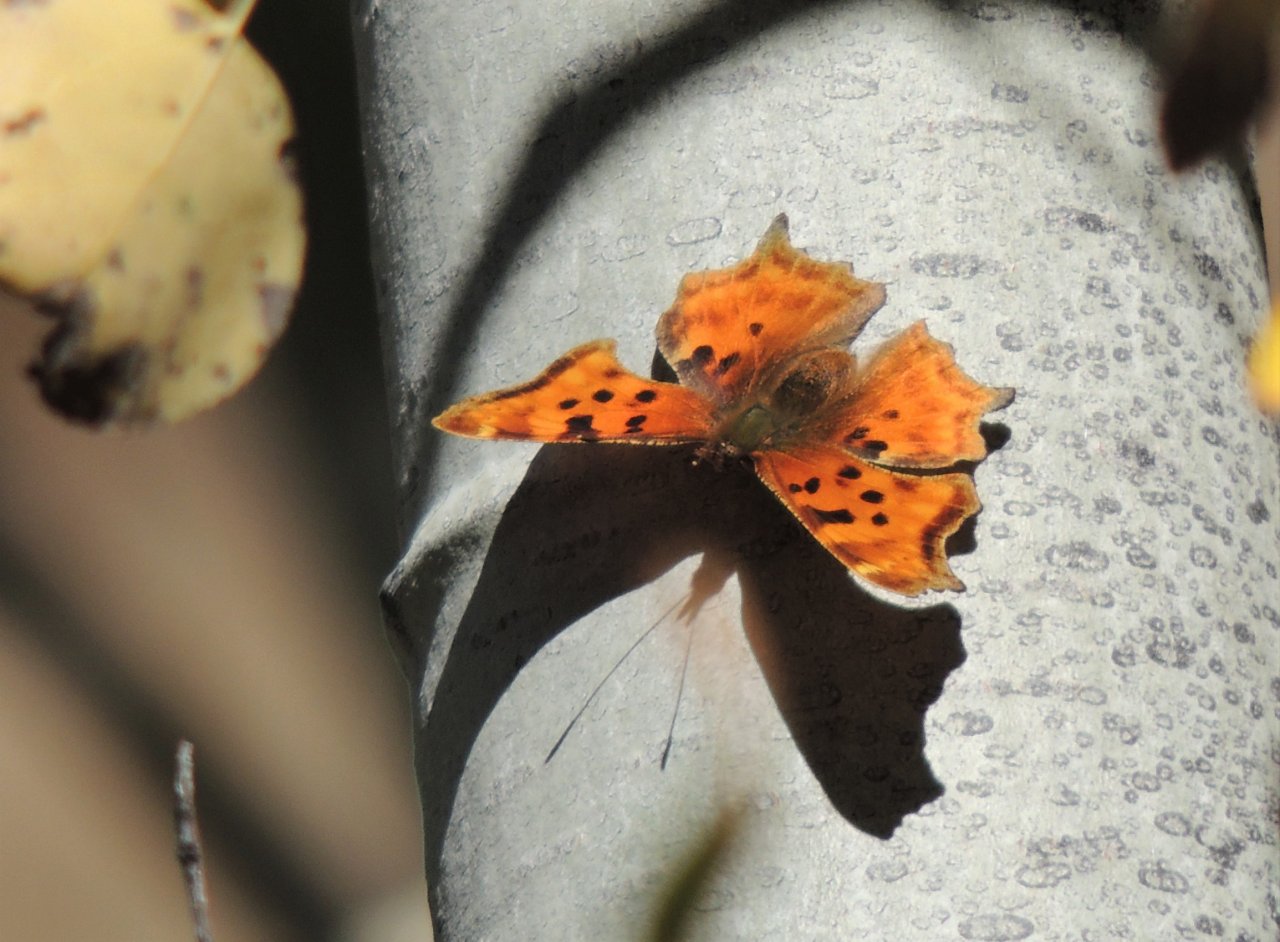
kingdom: Animalia
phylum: Arthropoda
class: Insecta
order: Lepidoptera
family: Nymphalidae
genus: Polygonia
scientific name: Polygonia satyrus
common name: Satyr Comma
